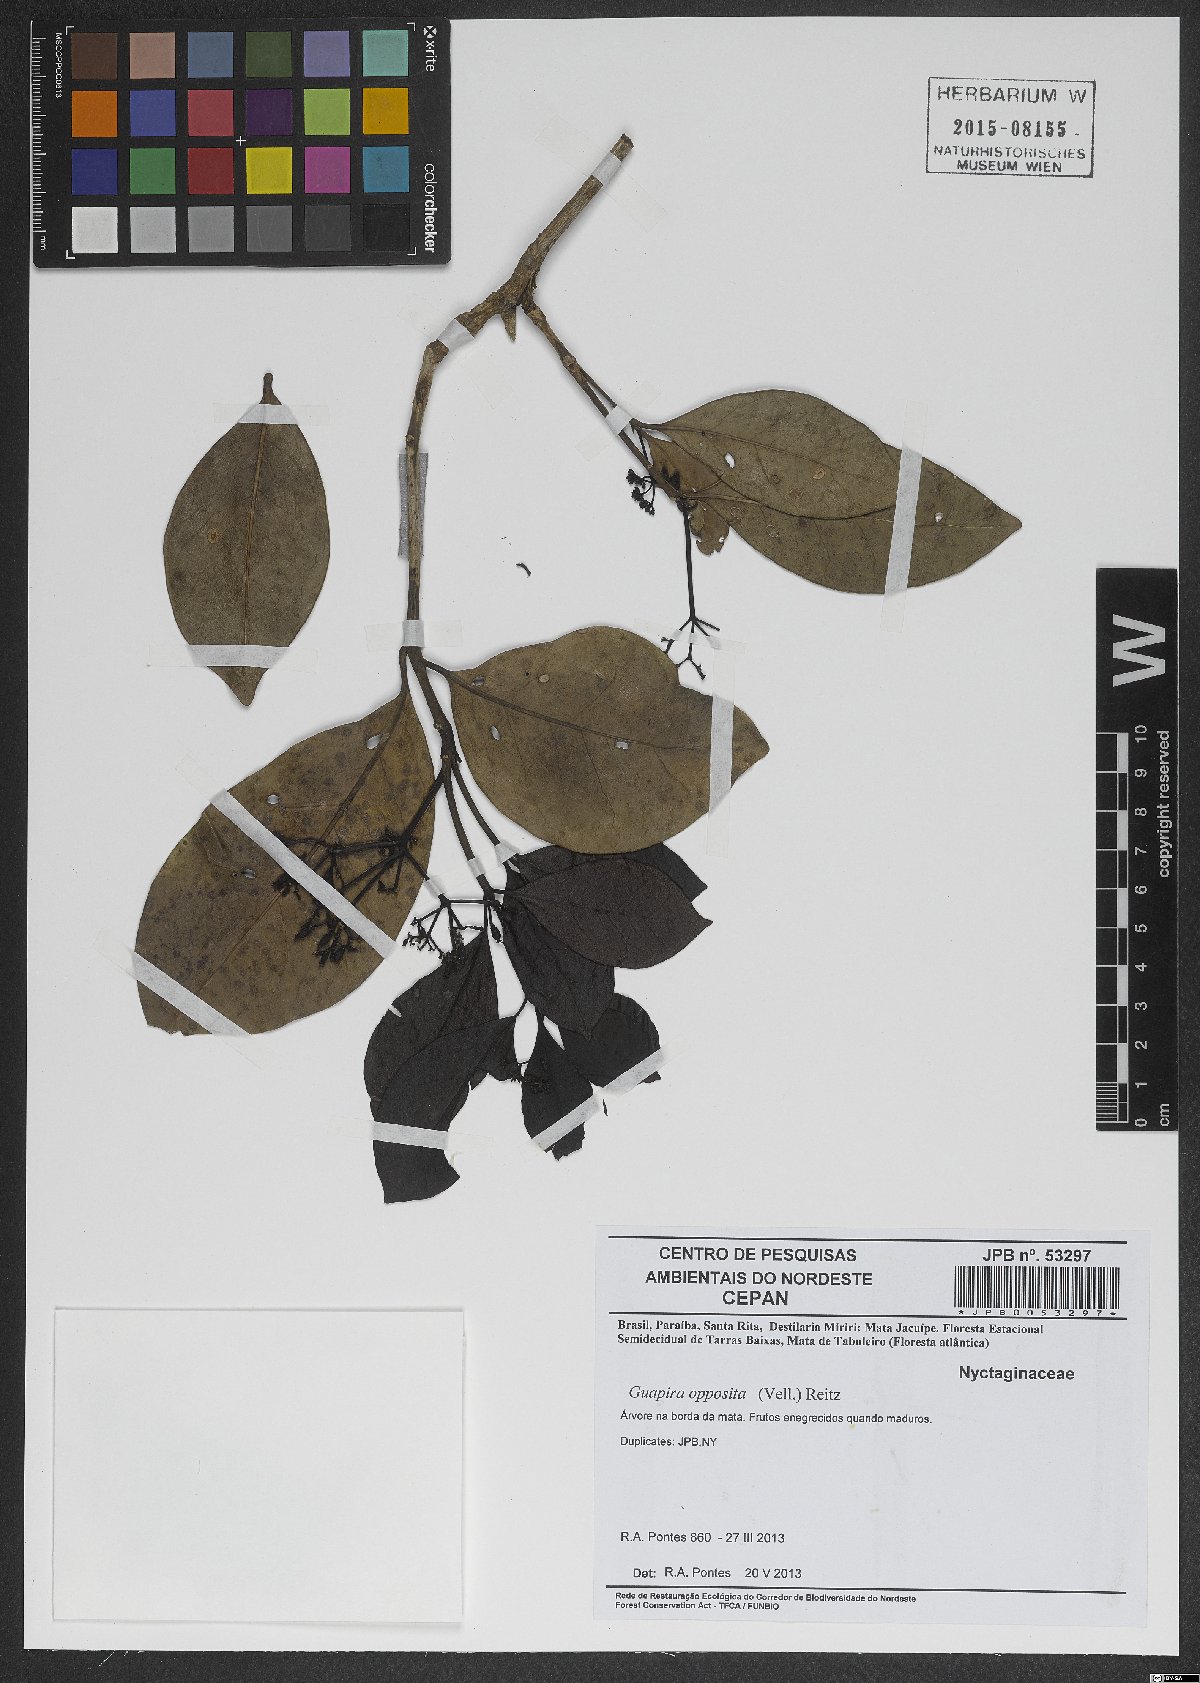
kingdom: Plantae
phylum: Tracheophyta
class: Magnoliopsida
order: Caryophyllales
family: Nyctaginaceae
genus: Guapira
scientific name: Guapira opposita
